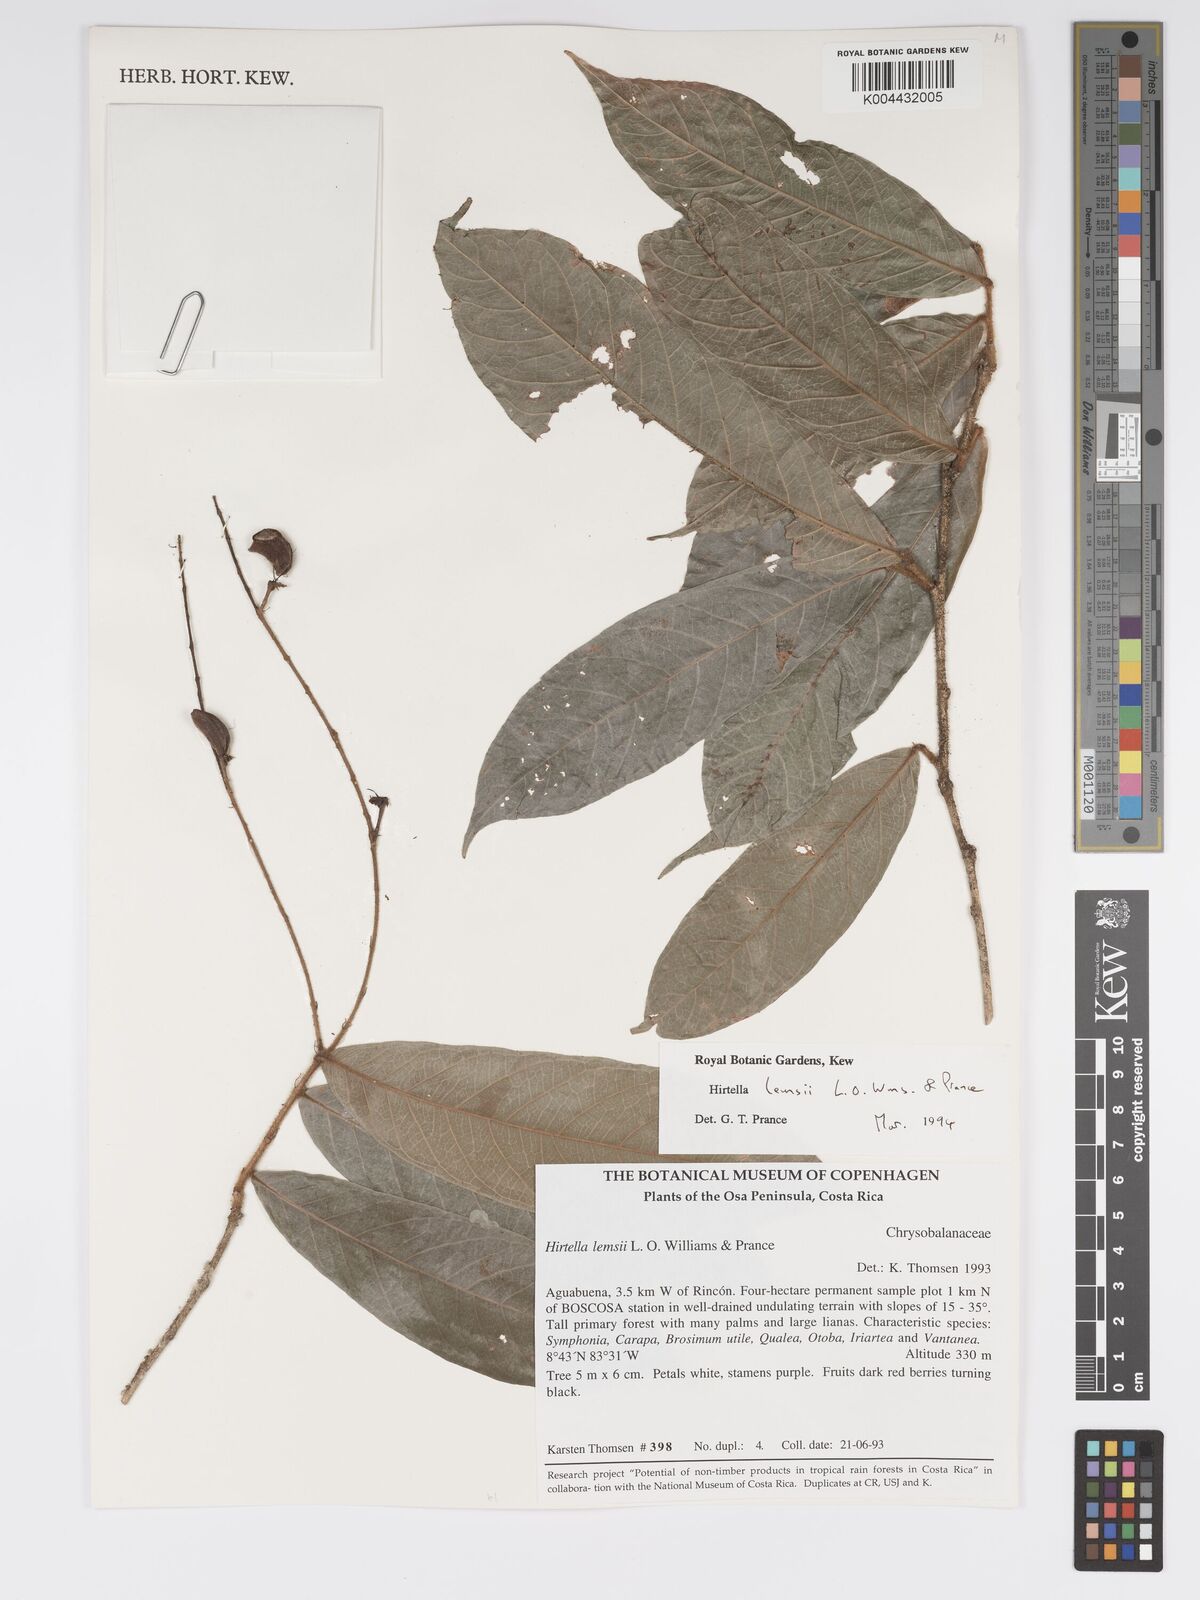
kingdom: Plantae
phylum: Tracheophyta
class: Magnoliopsida
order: Malpighiales
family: Chrysobalanaceae
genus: Hirtella
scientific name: Hirtella lemsii
